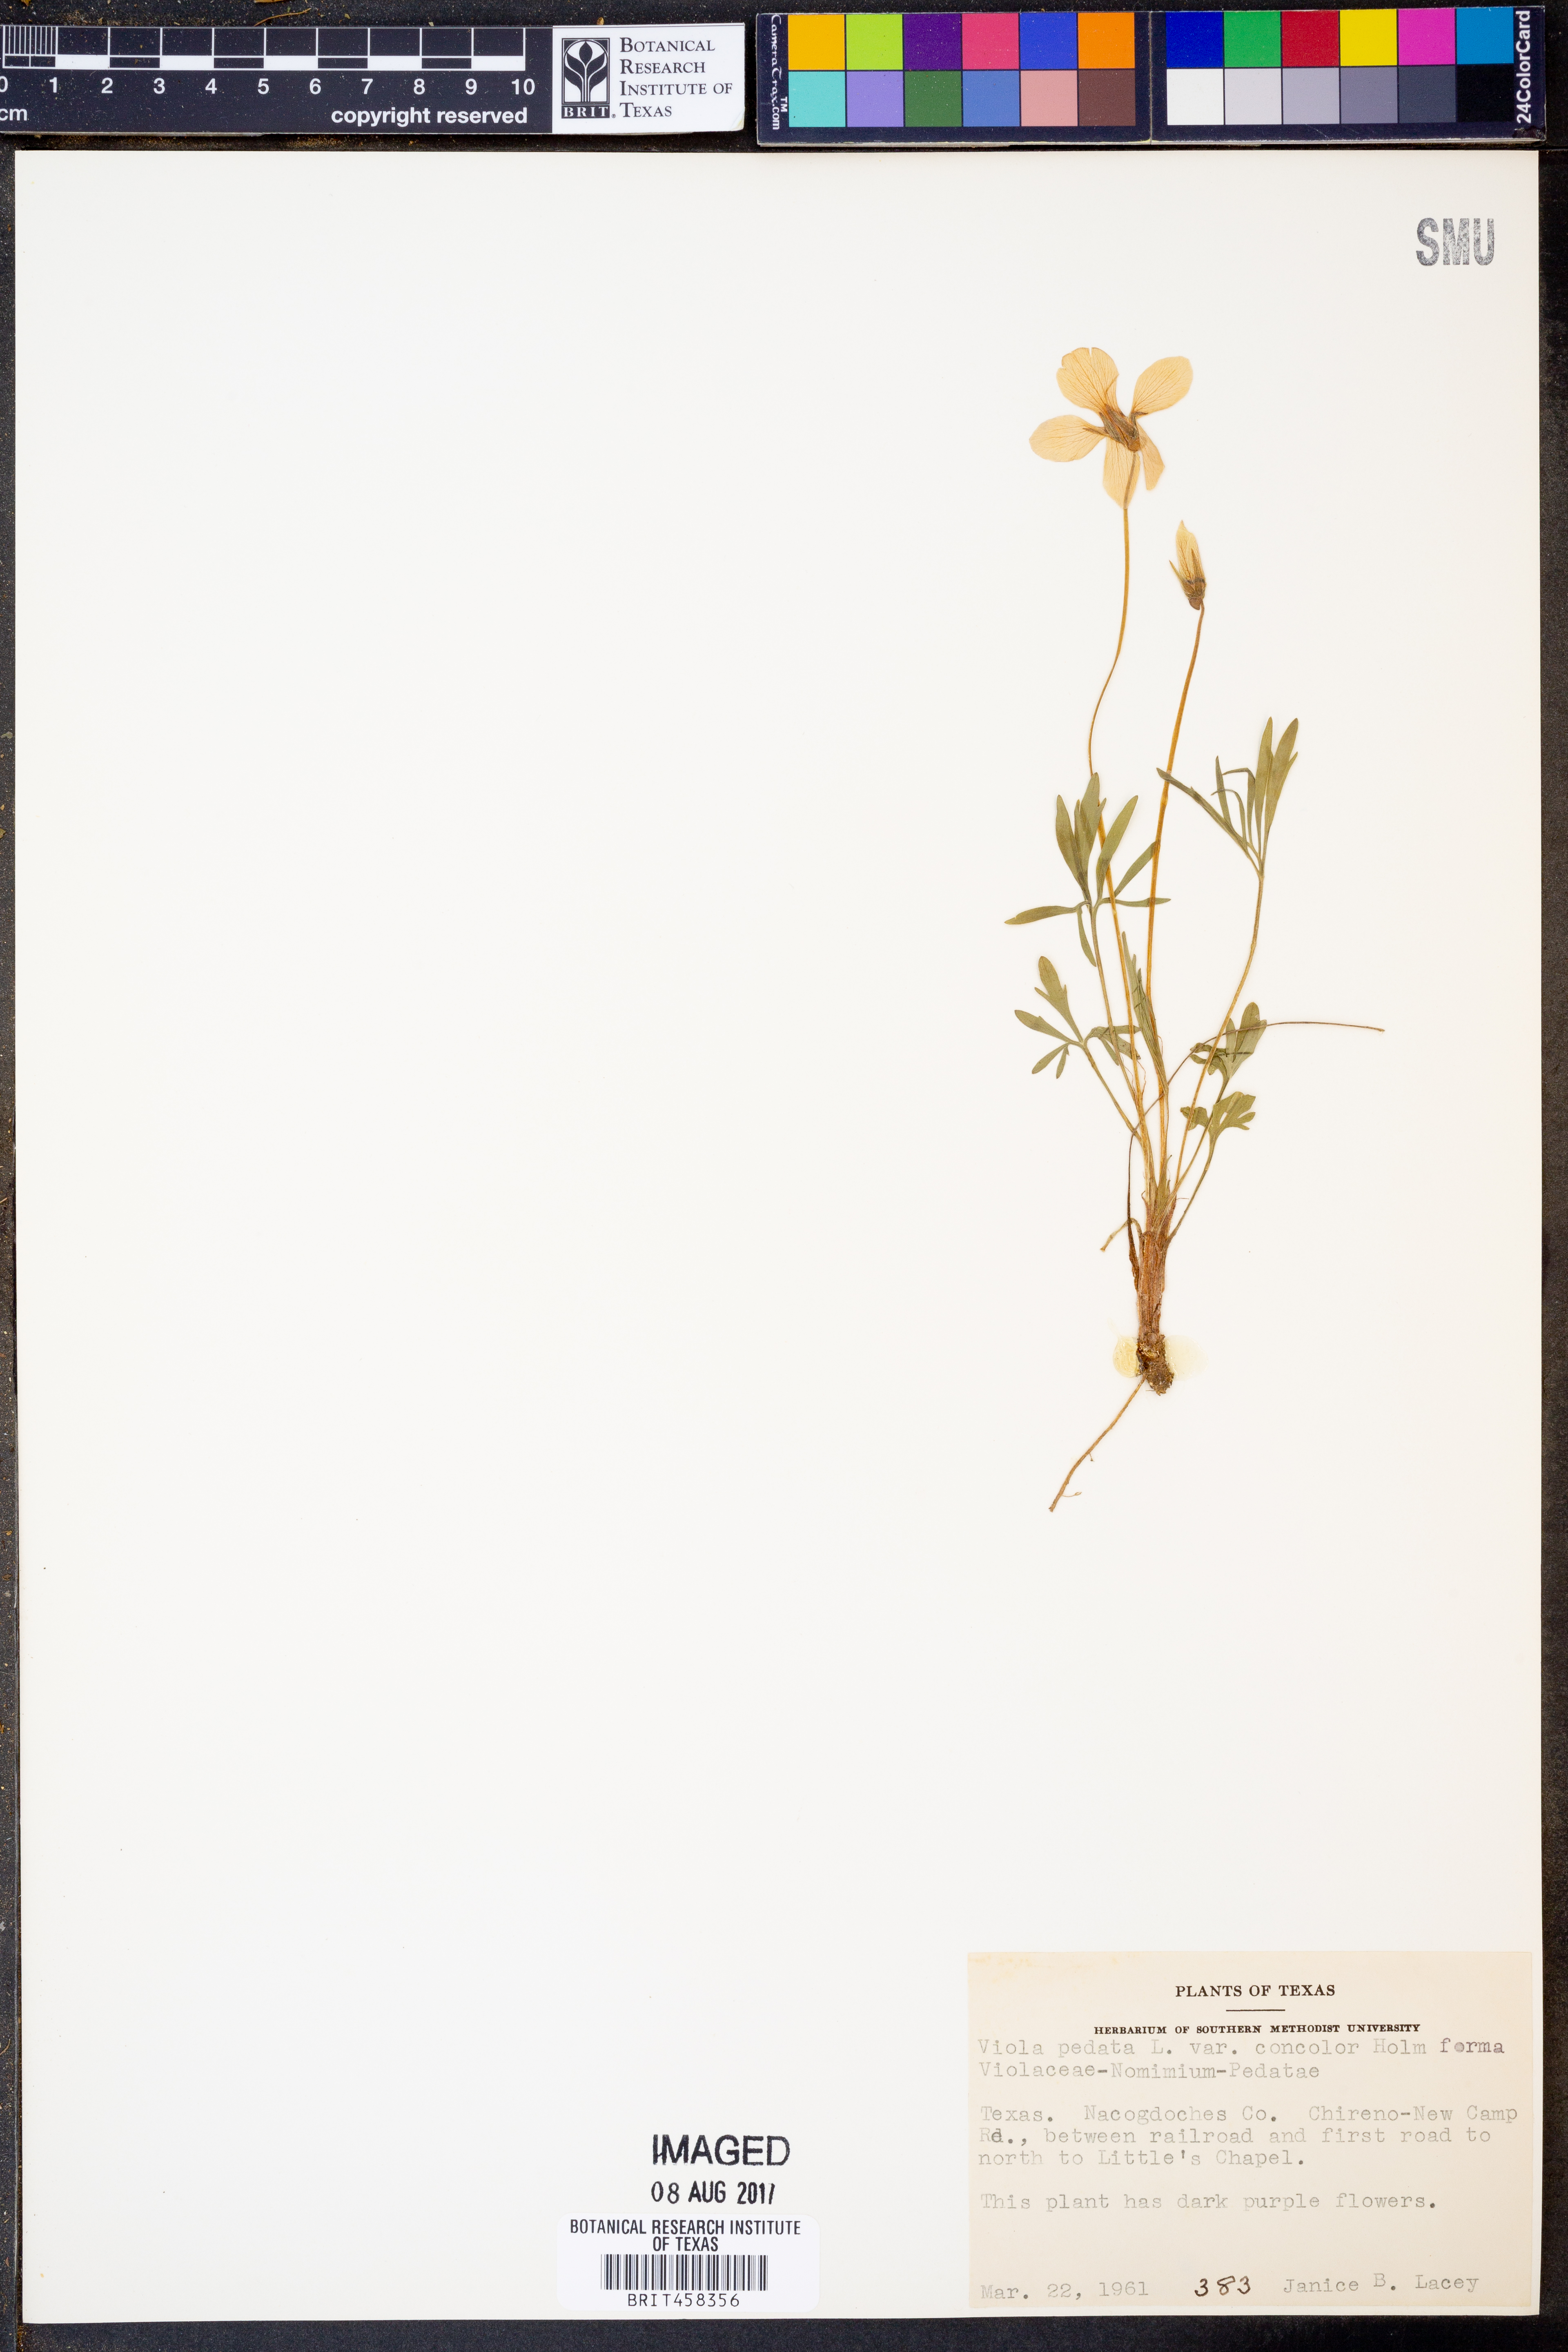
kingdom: Plantae
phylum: Tracheophyta
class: Magnoliopsida
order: Malpighiales
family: Violaceae
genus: Viola
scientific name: Viola pedata
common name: Pansy violet
